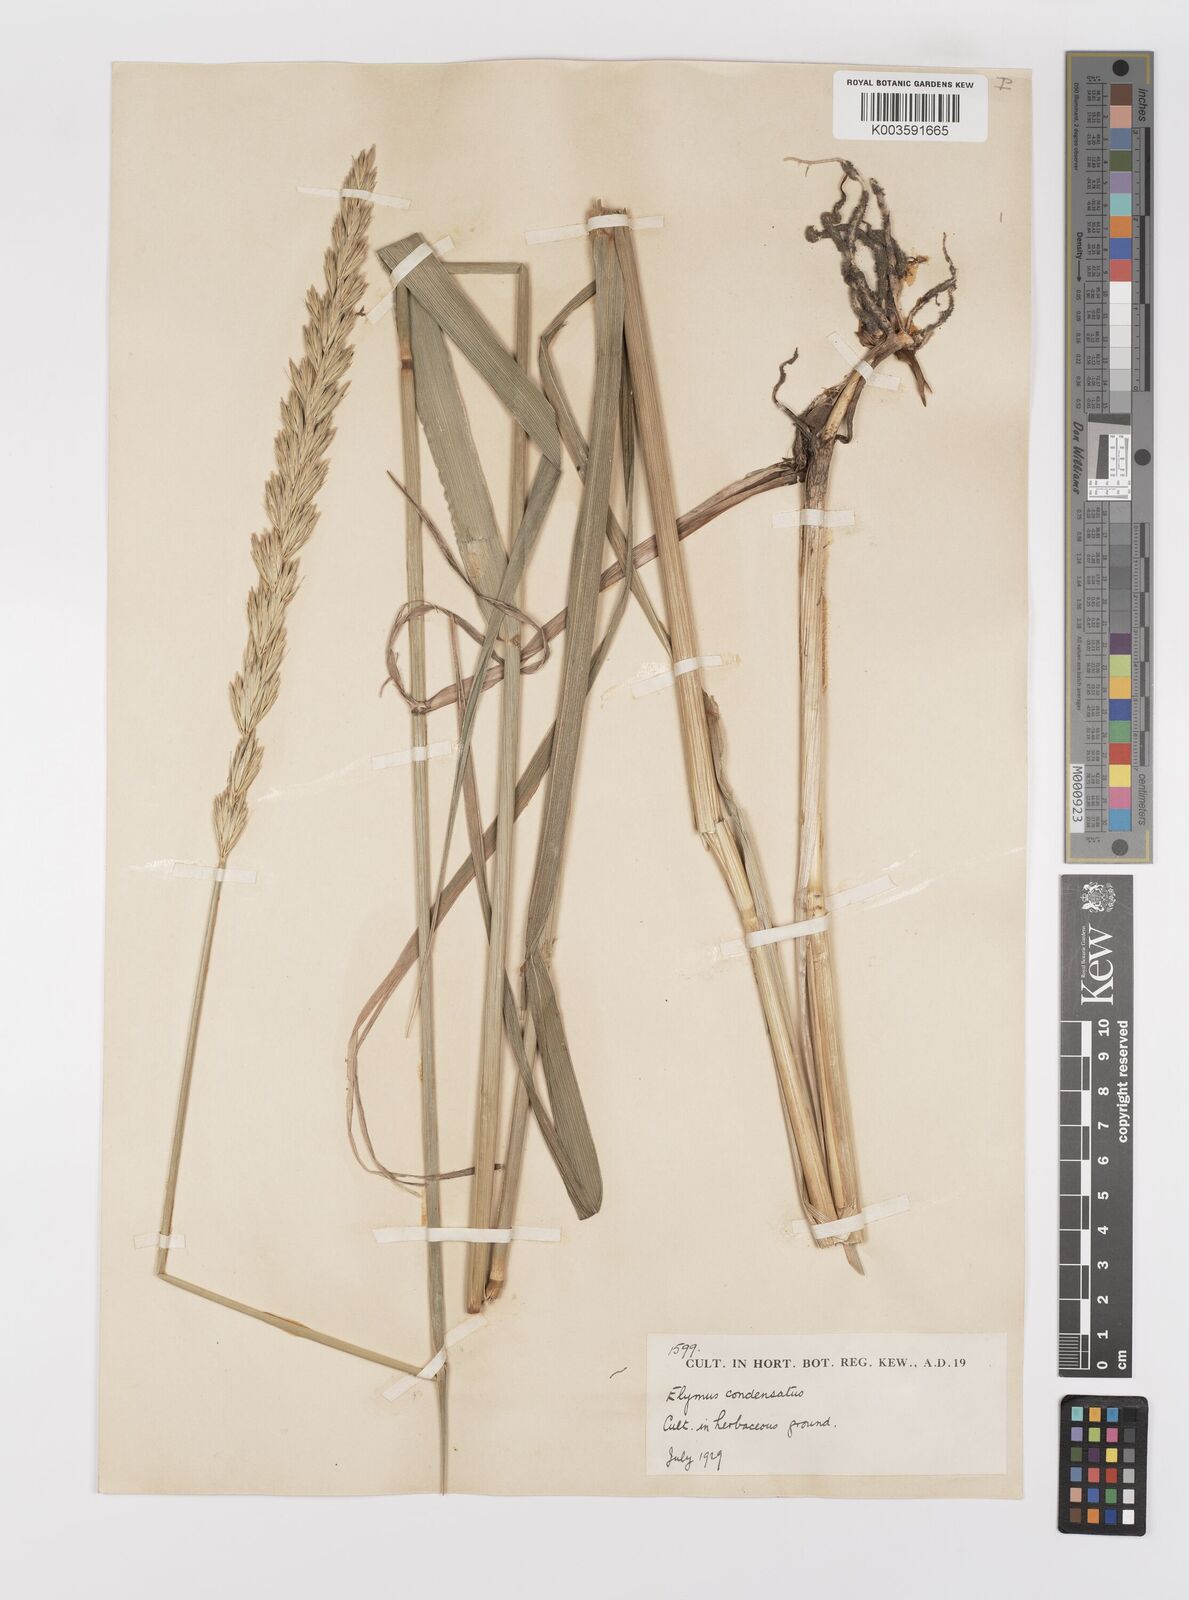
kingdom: Plantae
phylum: Tracheophyta
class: Liliopsida
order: Poales
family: Poaceae
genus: Leymus
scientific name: Leymus condensatus
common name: Giant wild rye
